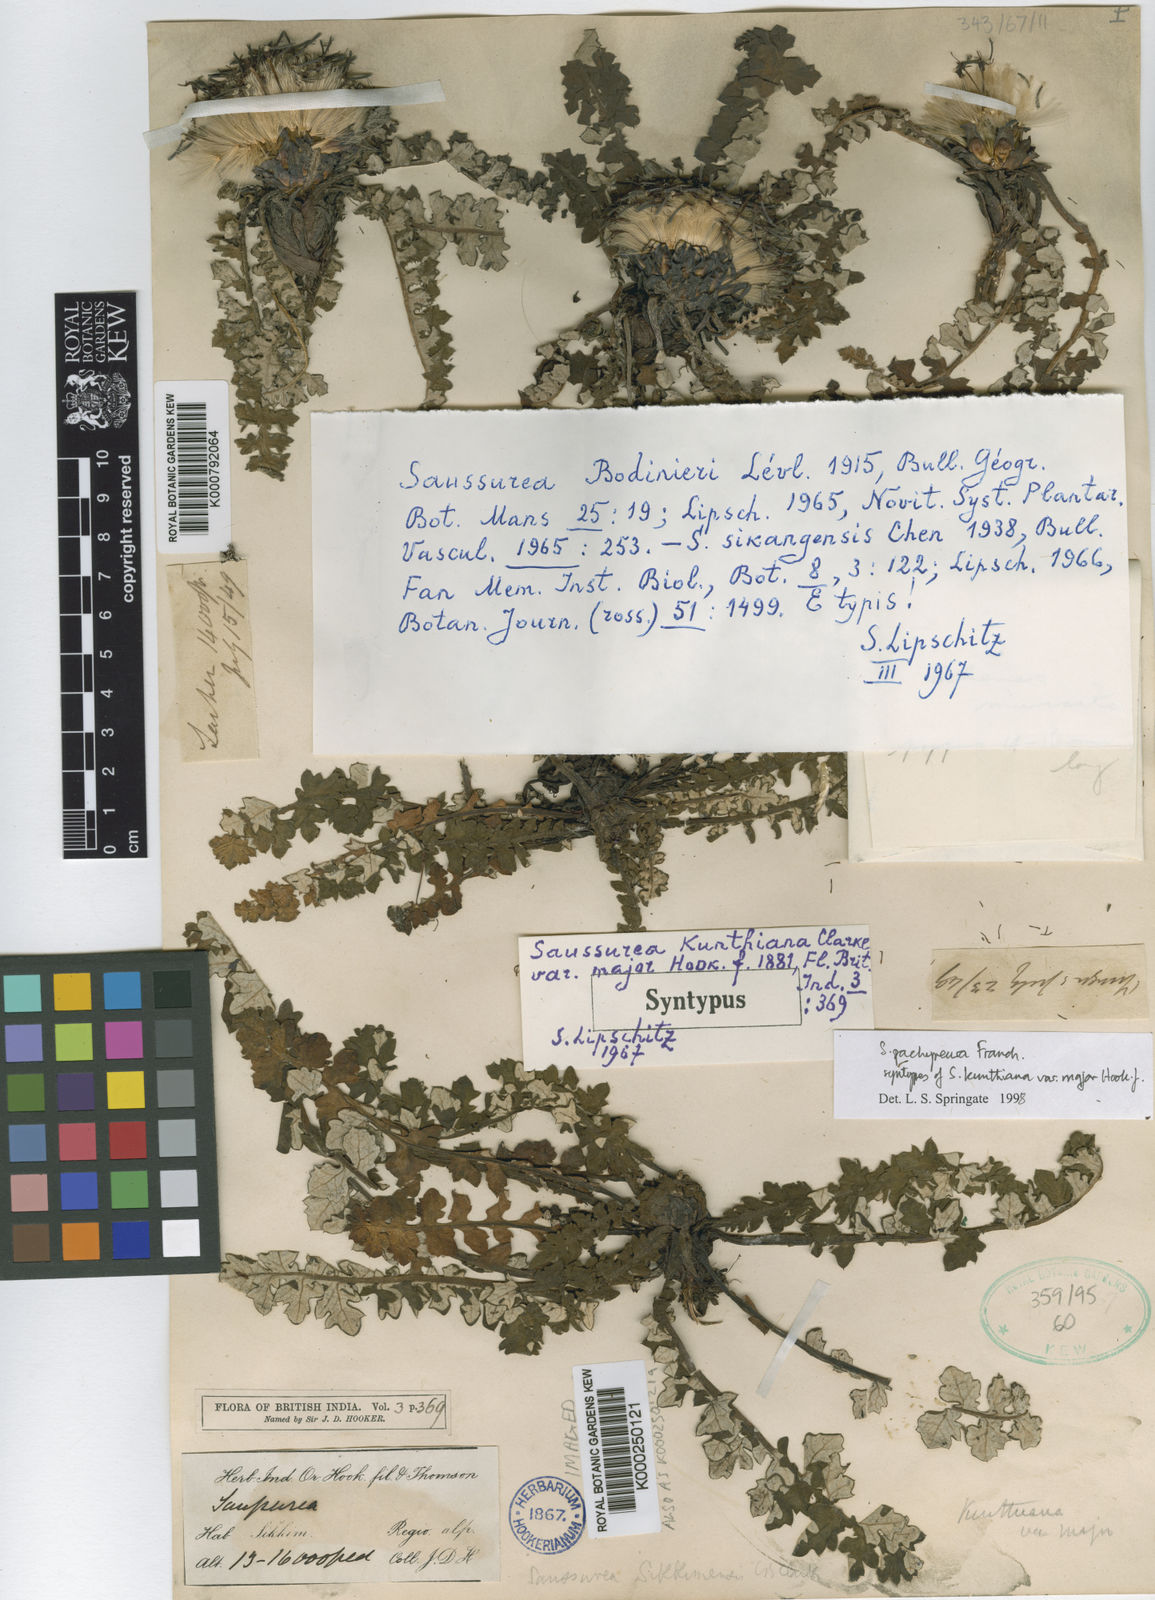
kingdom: Plantae
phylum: Tracheophyta
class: Magnoliopsida
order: Asterales
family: Asteraceae
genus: Saussurea
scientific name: Saussurea pachyneura
